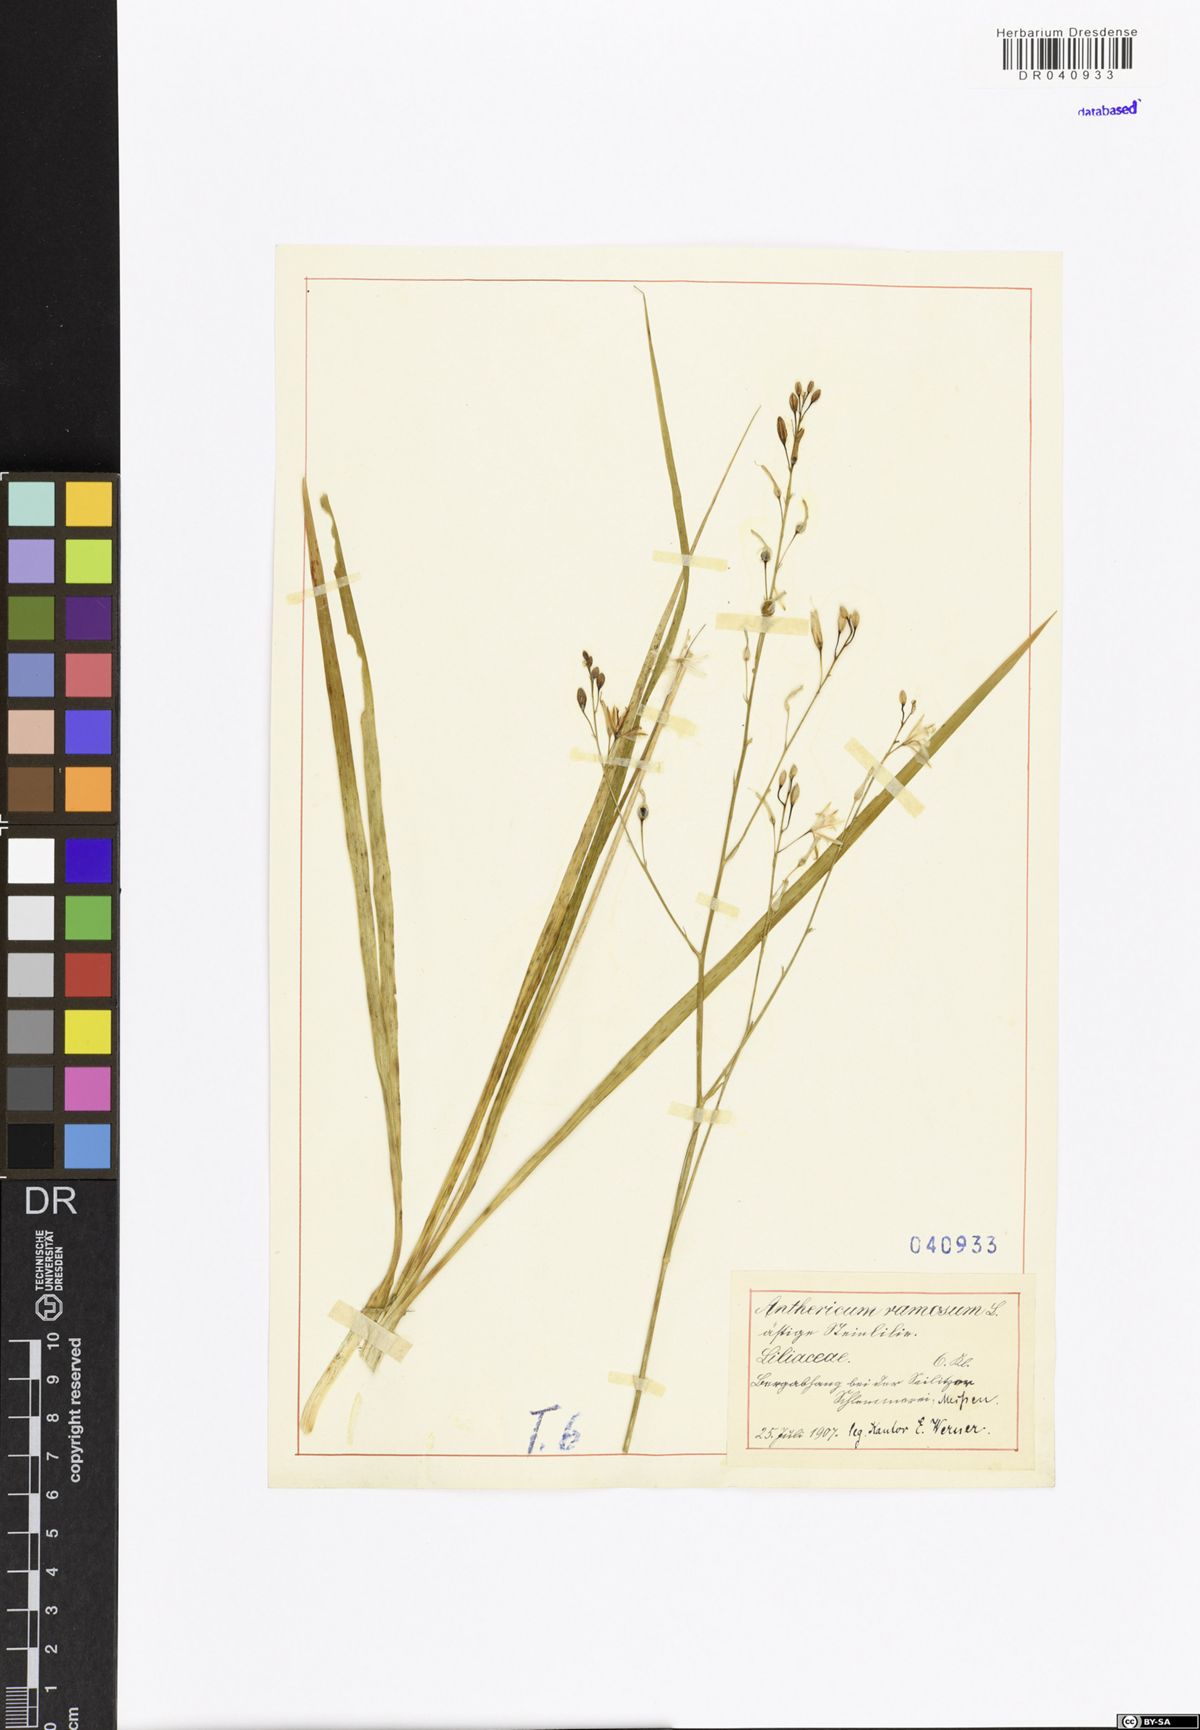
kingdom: Plantae
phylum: Tracheophyta
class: Liliopsida
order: Asparagales
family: Asparagaceae
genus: Anthericum
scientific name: Anthericum ramosum
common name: Branched st. bernard's-lily
